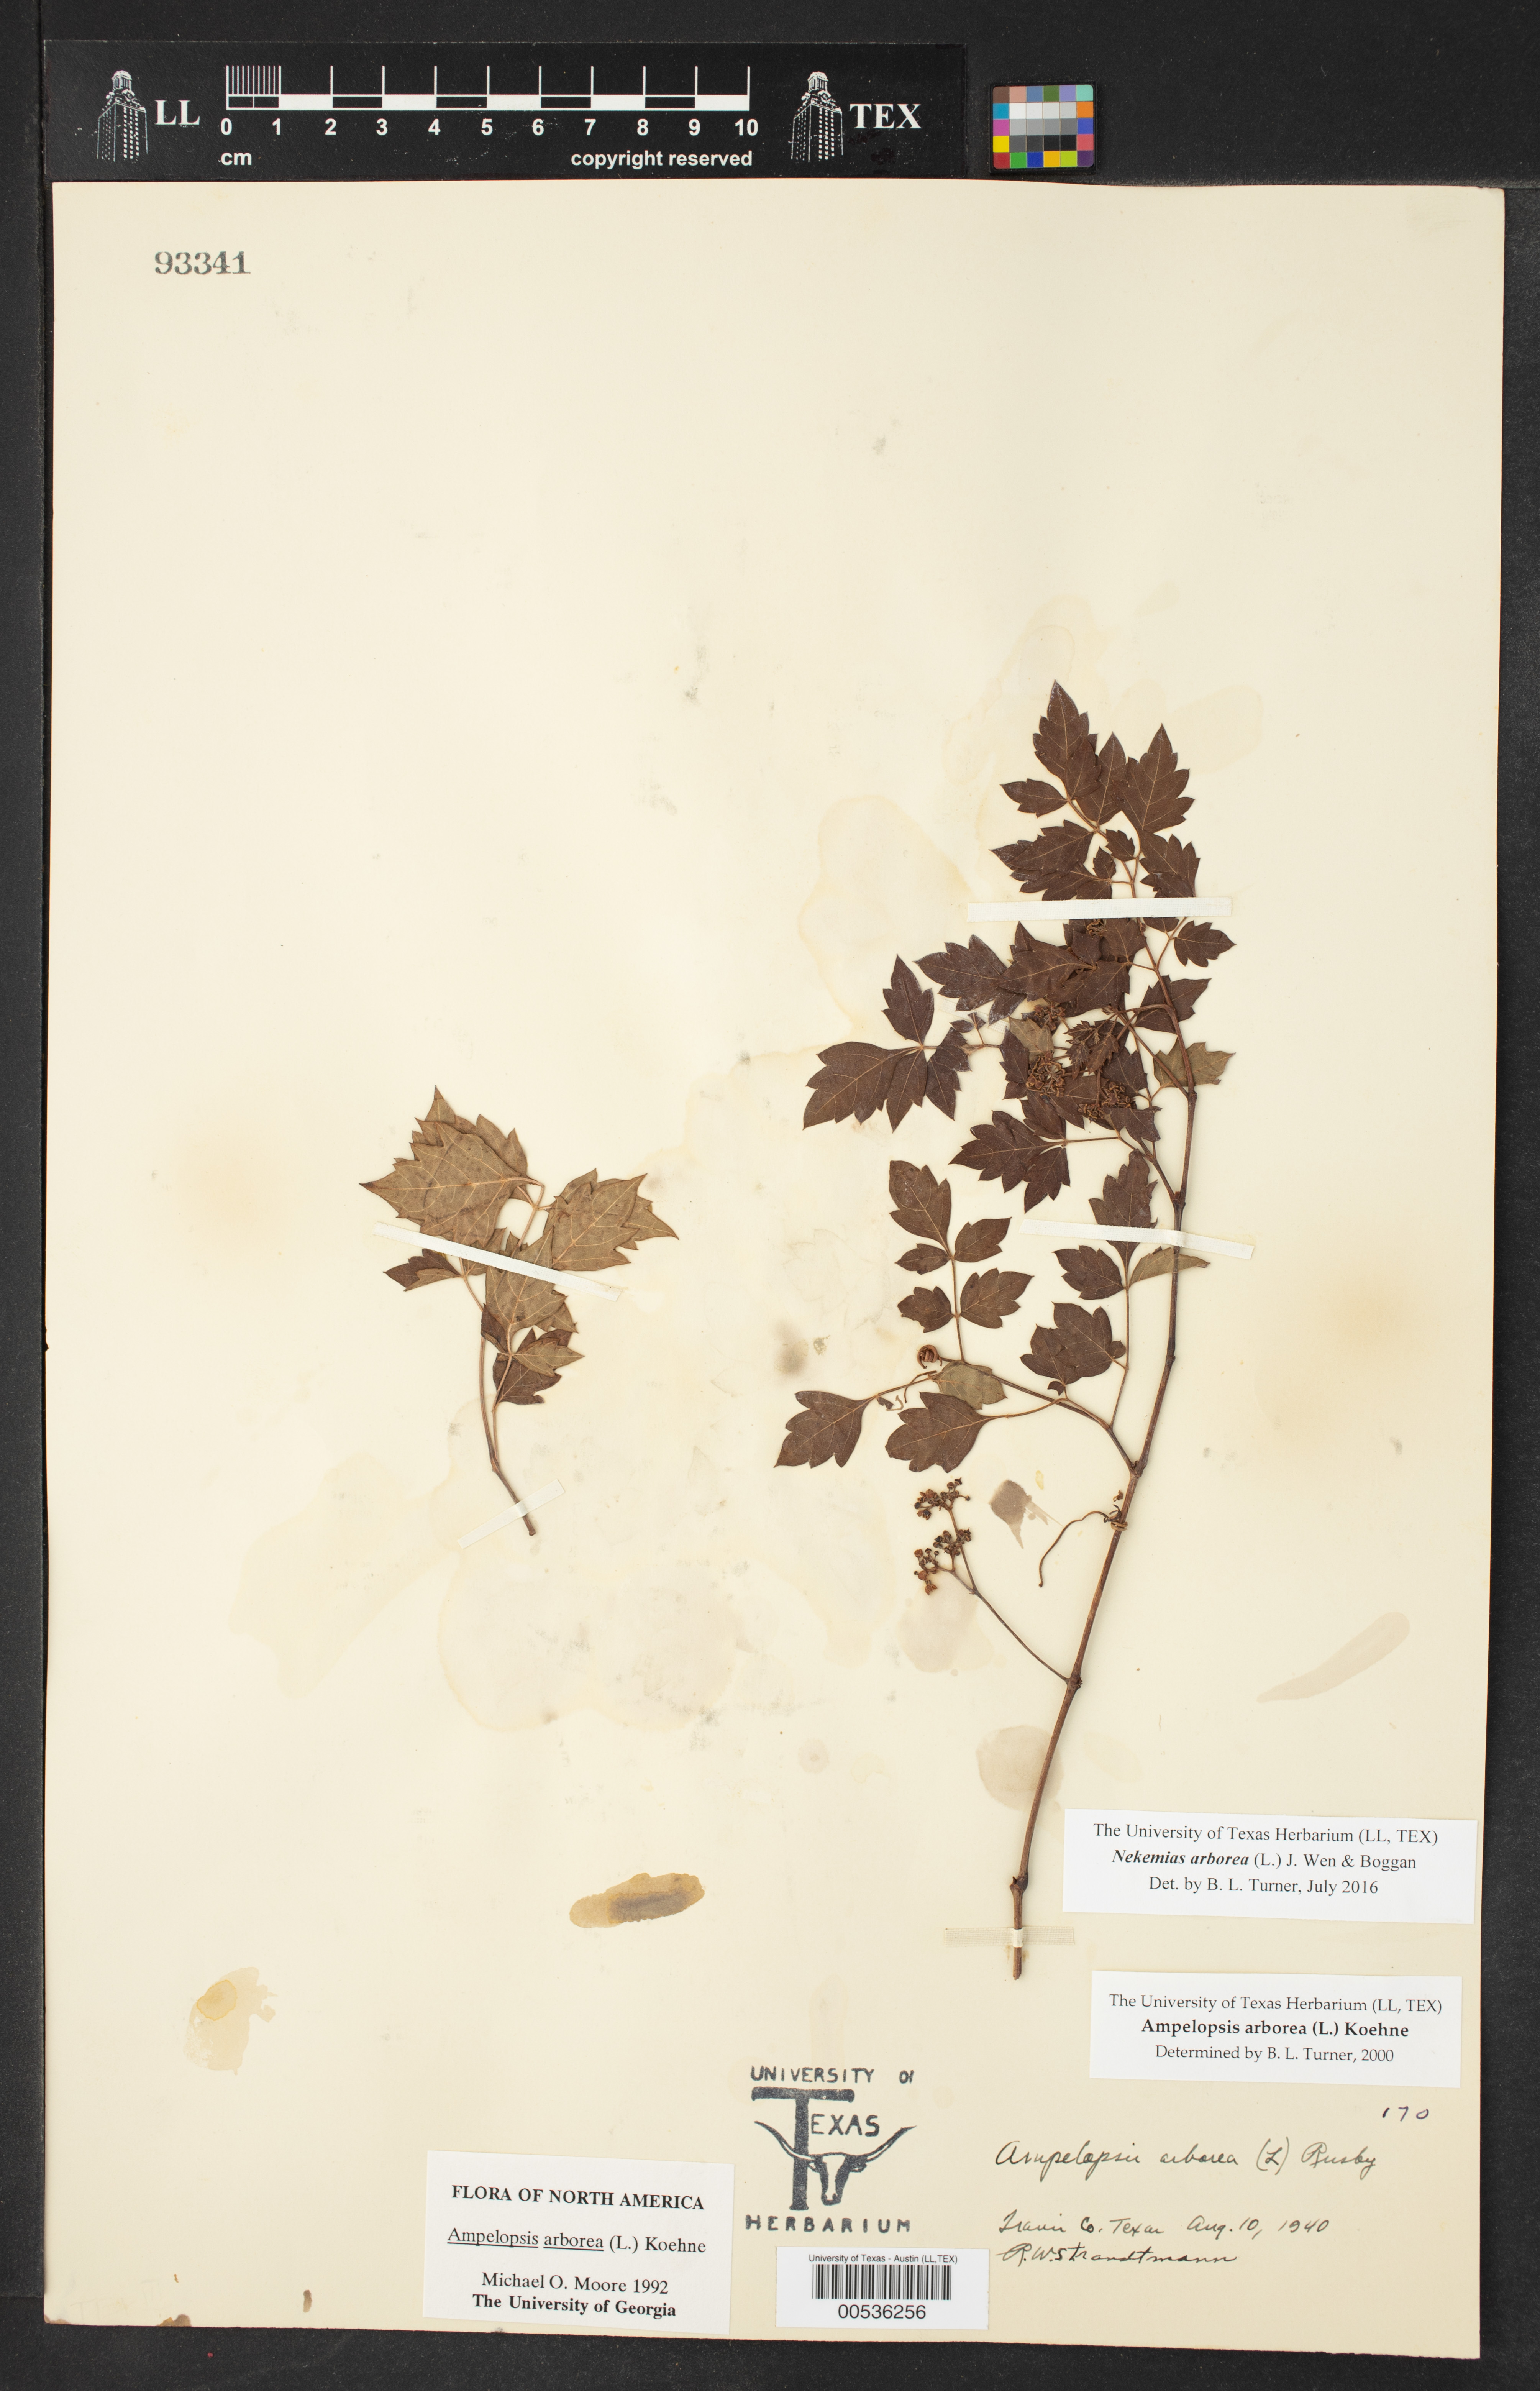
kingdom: Plantae
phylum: Tracheophyta
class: Magnoliopsida
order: Vitales
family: Vitaceae
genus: Nekemias
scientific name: Nekemias arborea
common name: Peppervine
